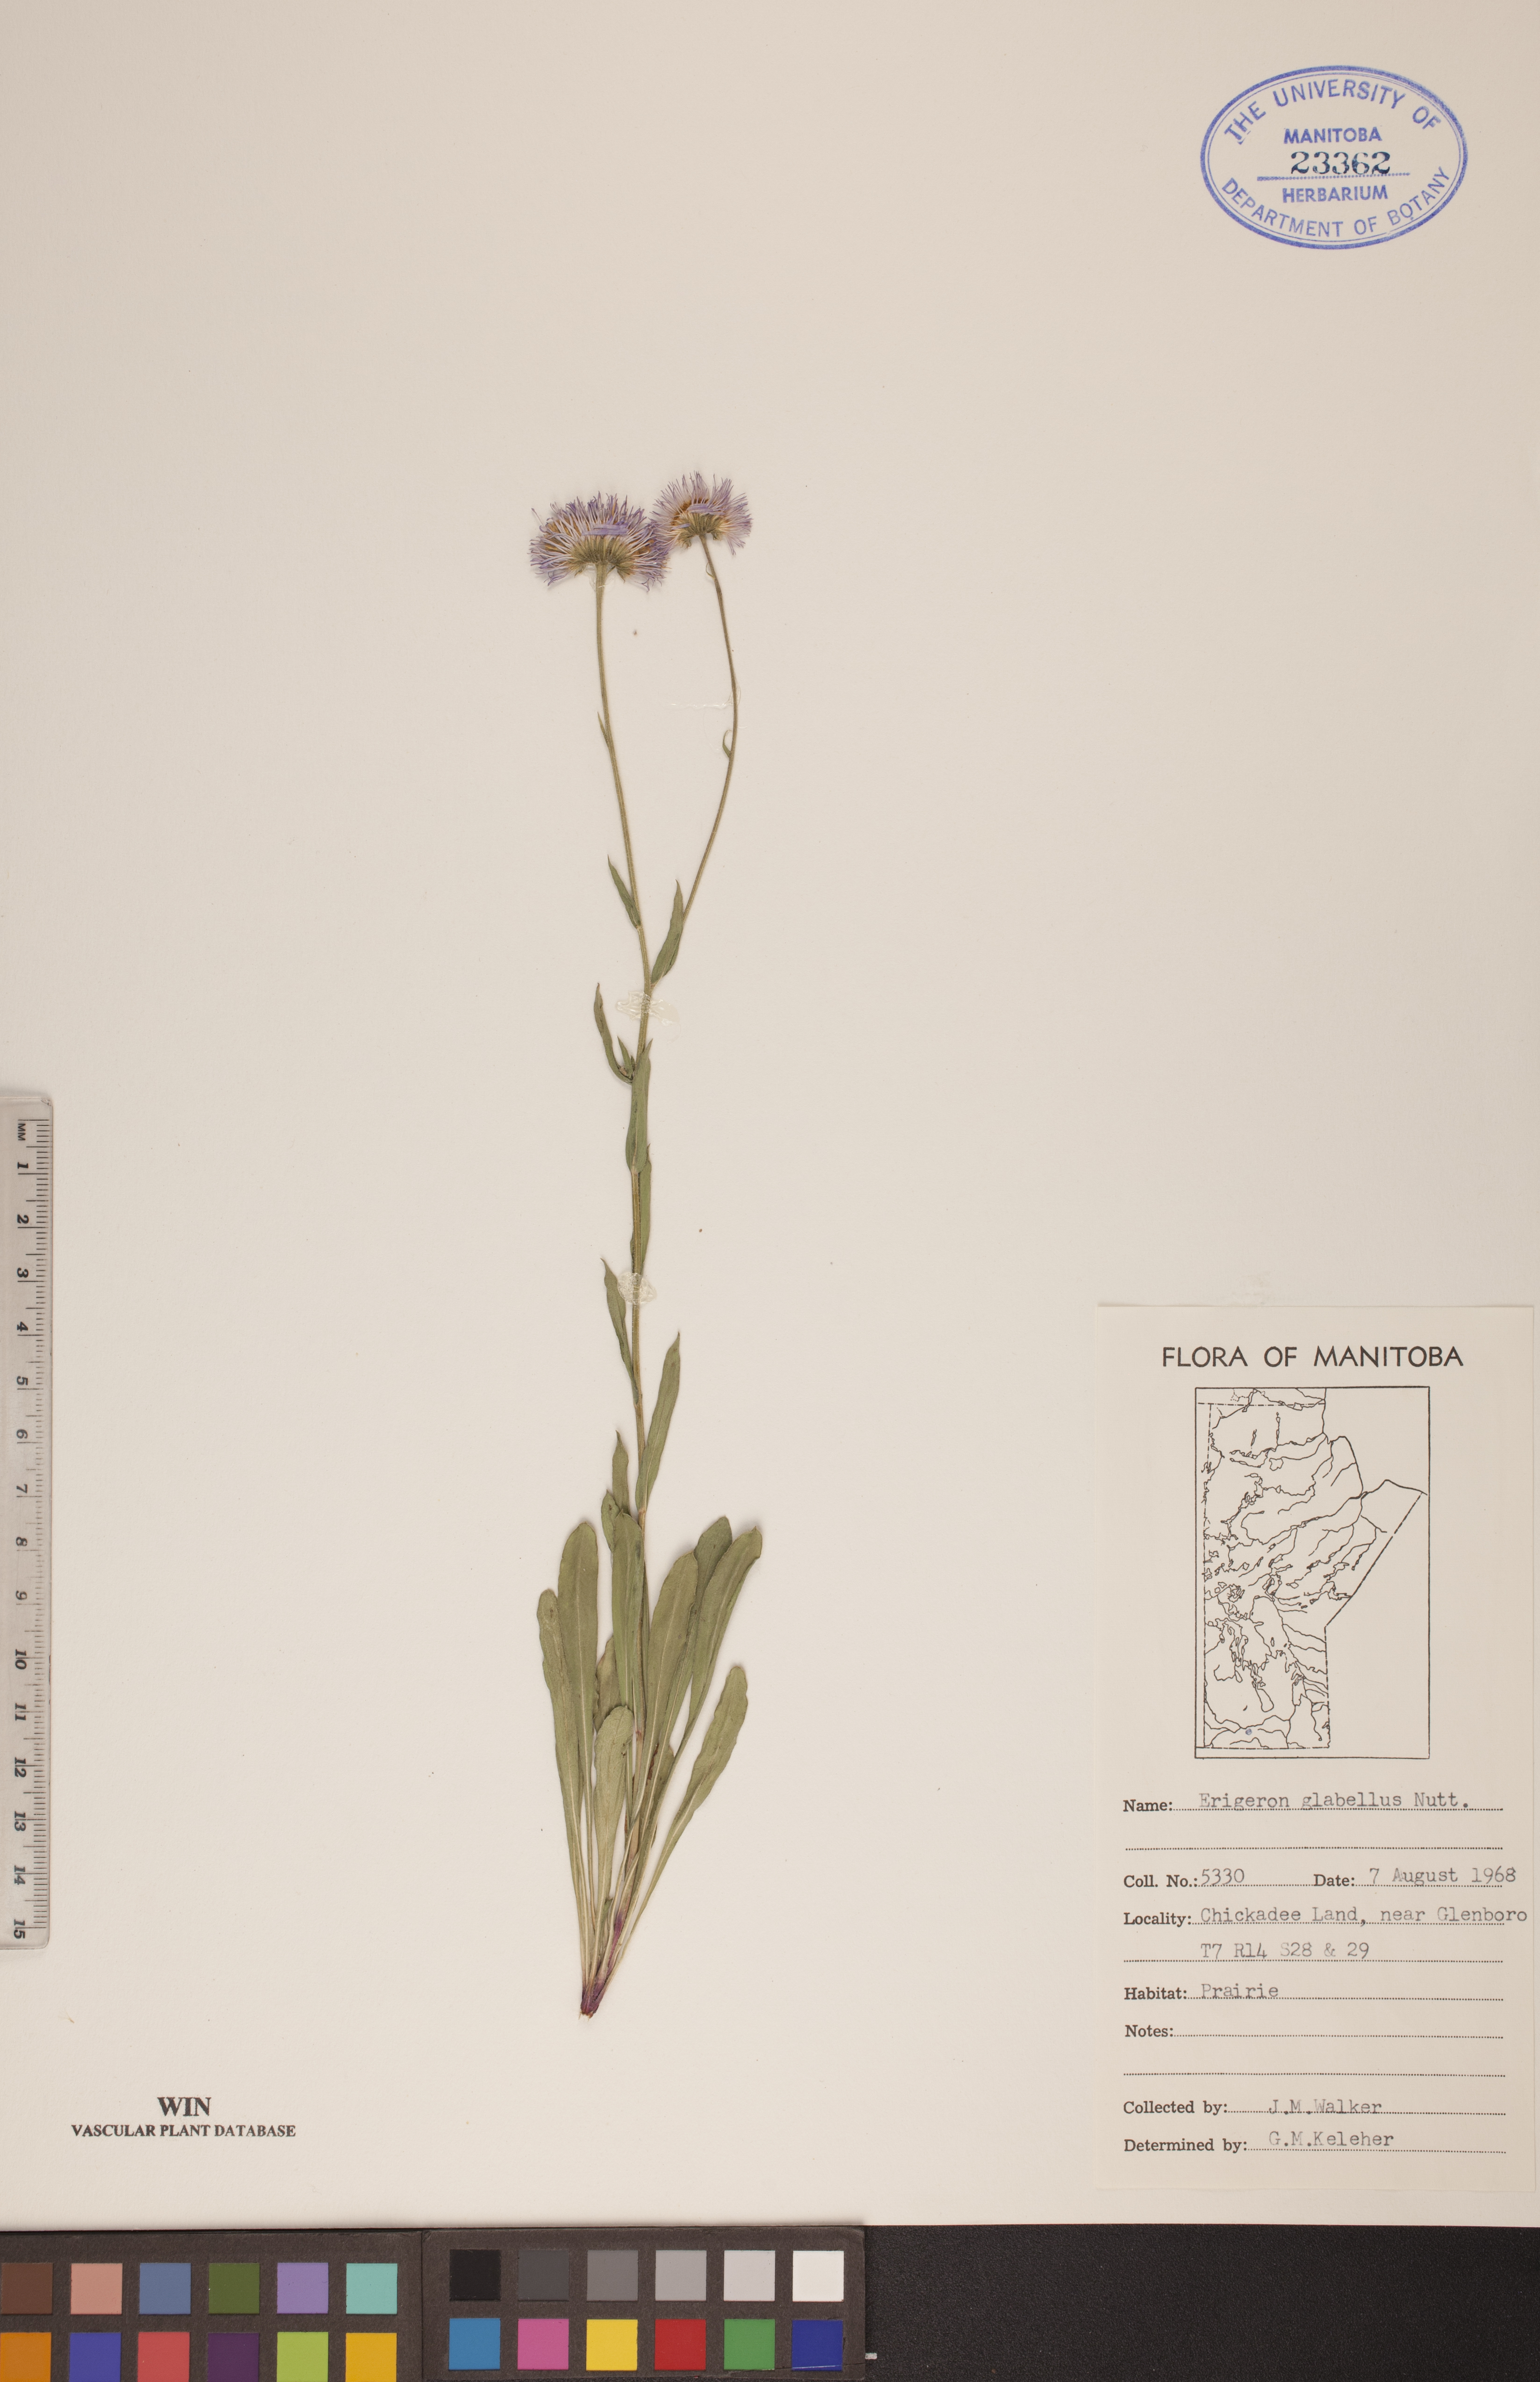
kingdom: Plantae
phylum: Tracheophyta
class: Magnoliopsida
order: Asterales
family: Asteraceae
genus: Erigeron
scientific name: Erigeron glabellus
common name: Smooth fleabane
